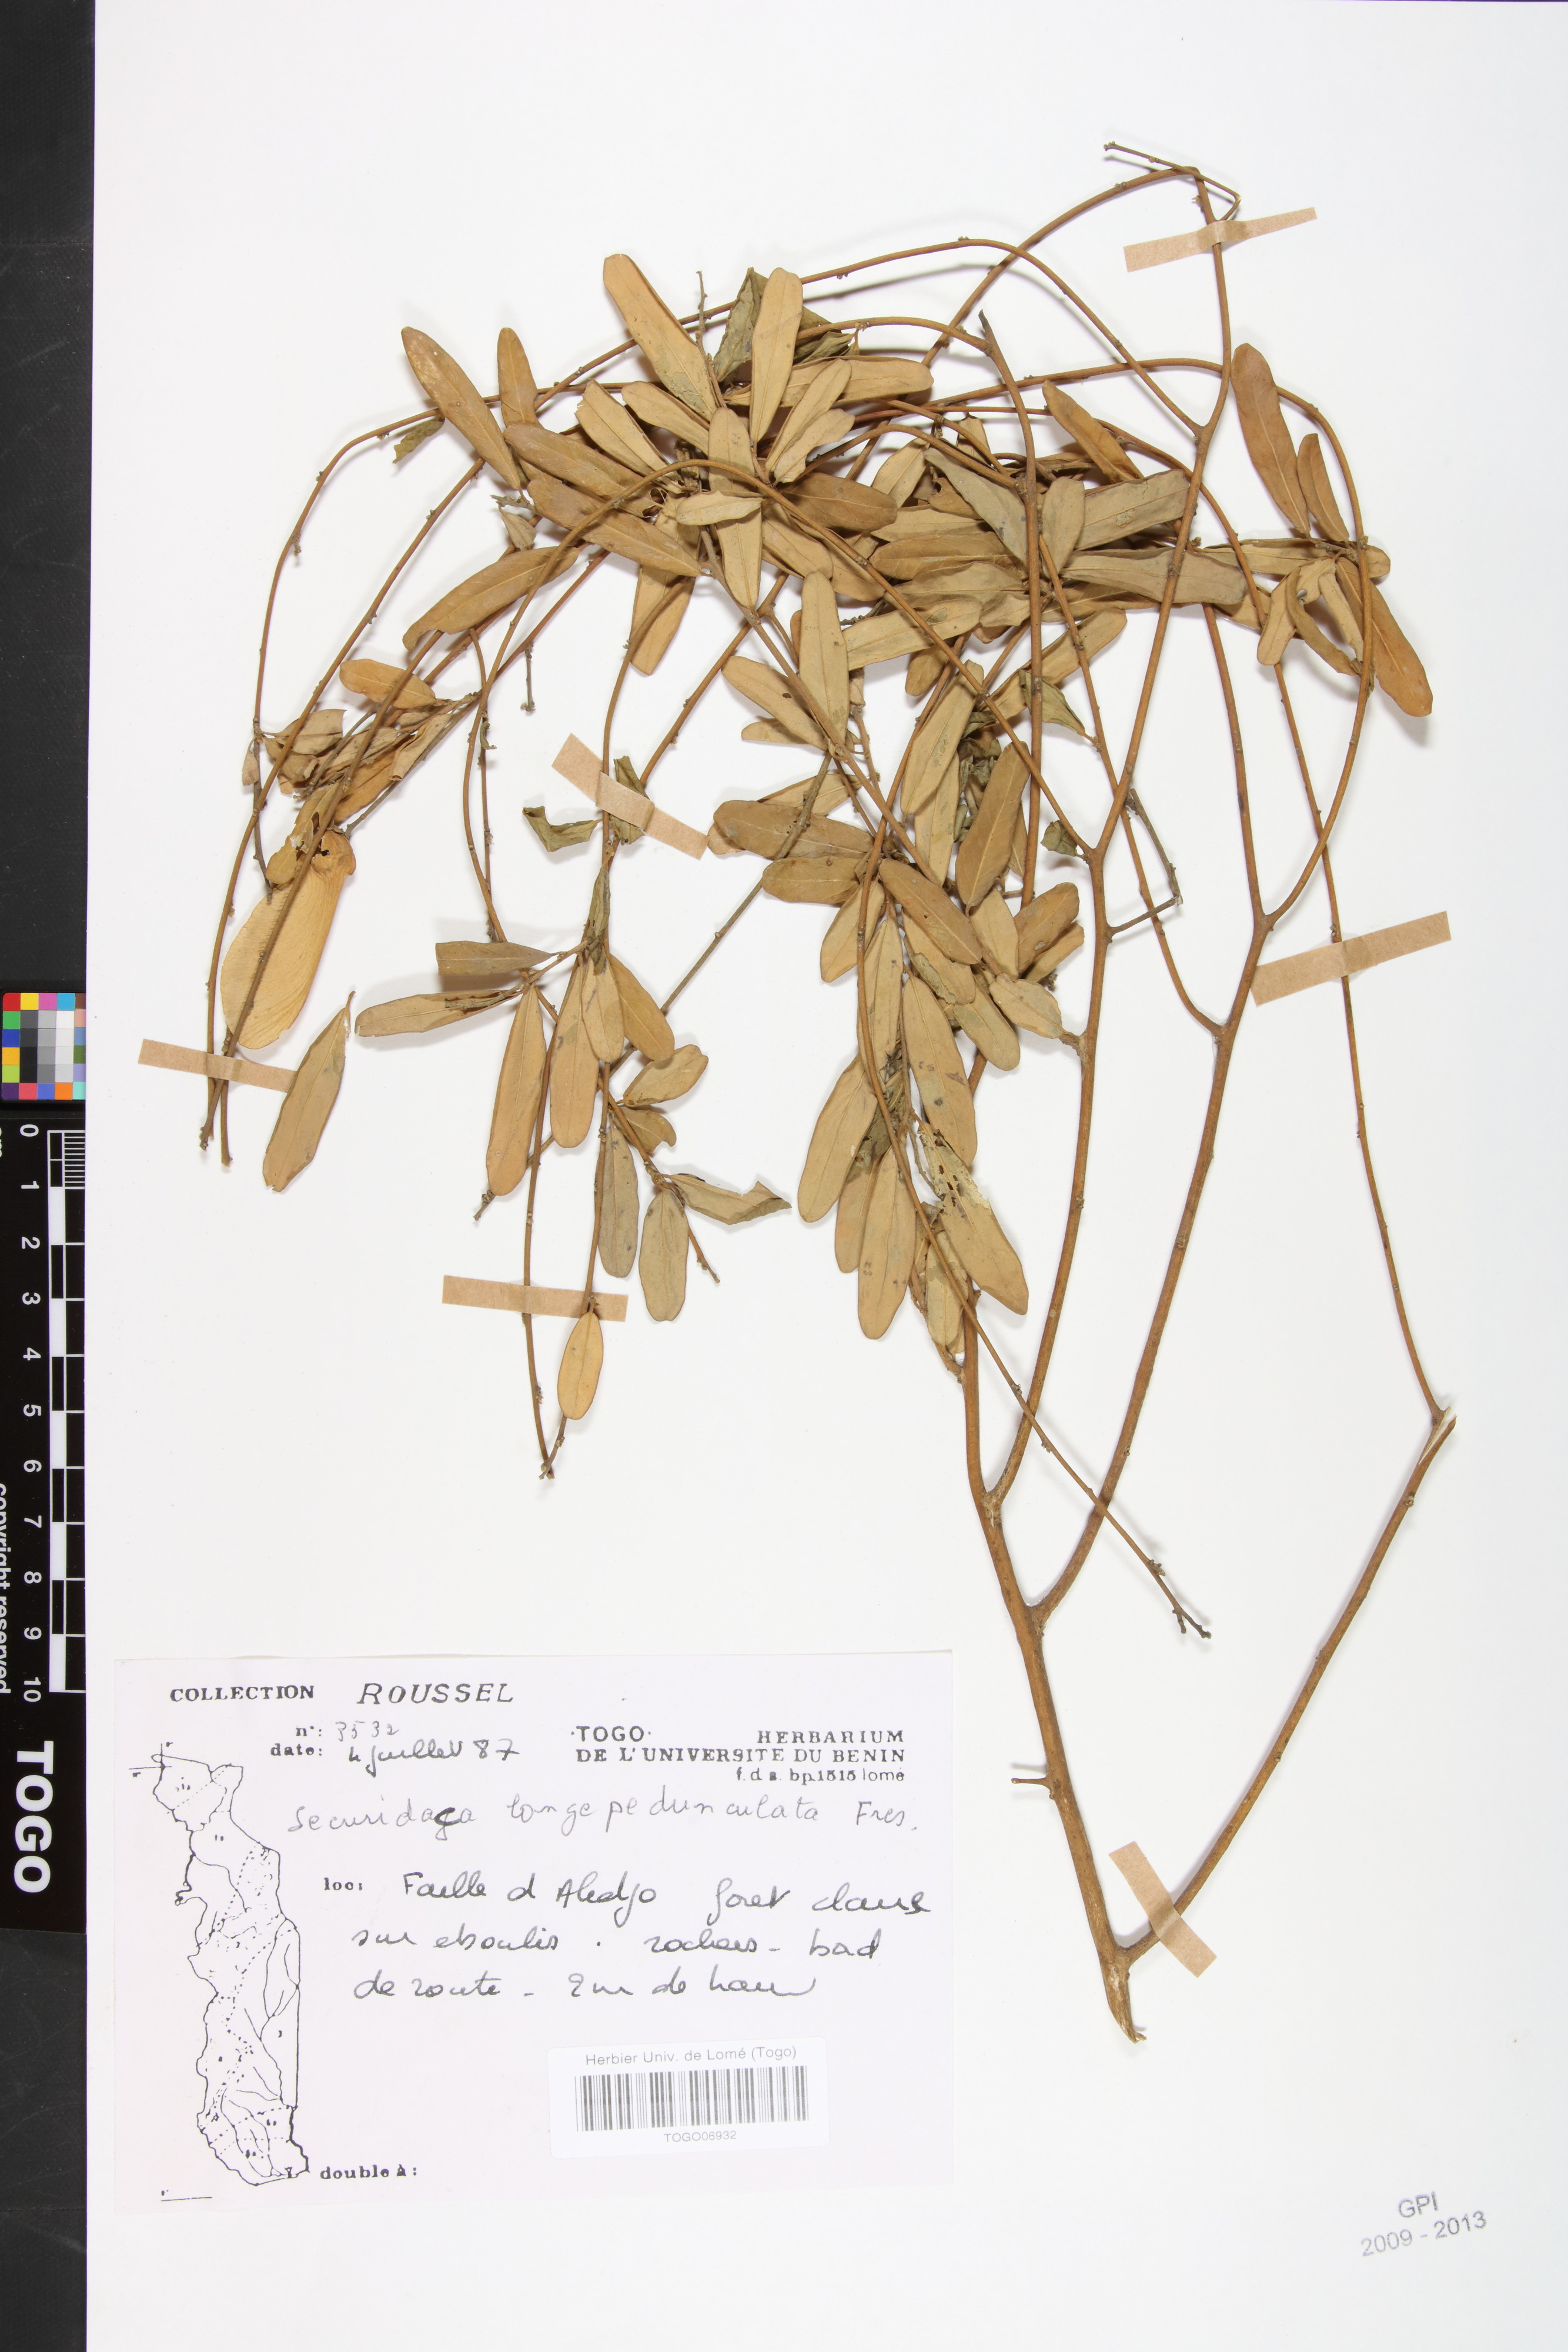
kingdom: Plantae
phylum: Tracheophyta
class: Magnoliopsida
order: Fabales
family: Polygalaceae
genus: Securidaca
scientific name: Securidaca longepedunculata
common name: Violet tree
